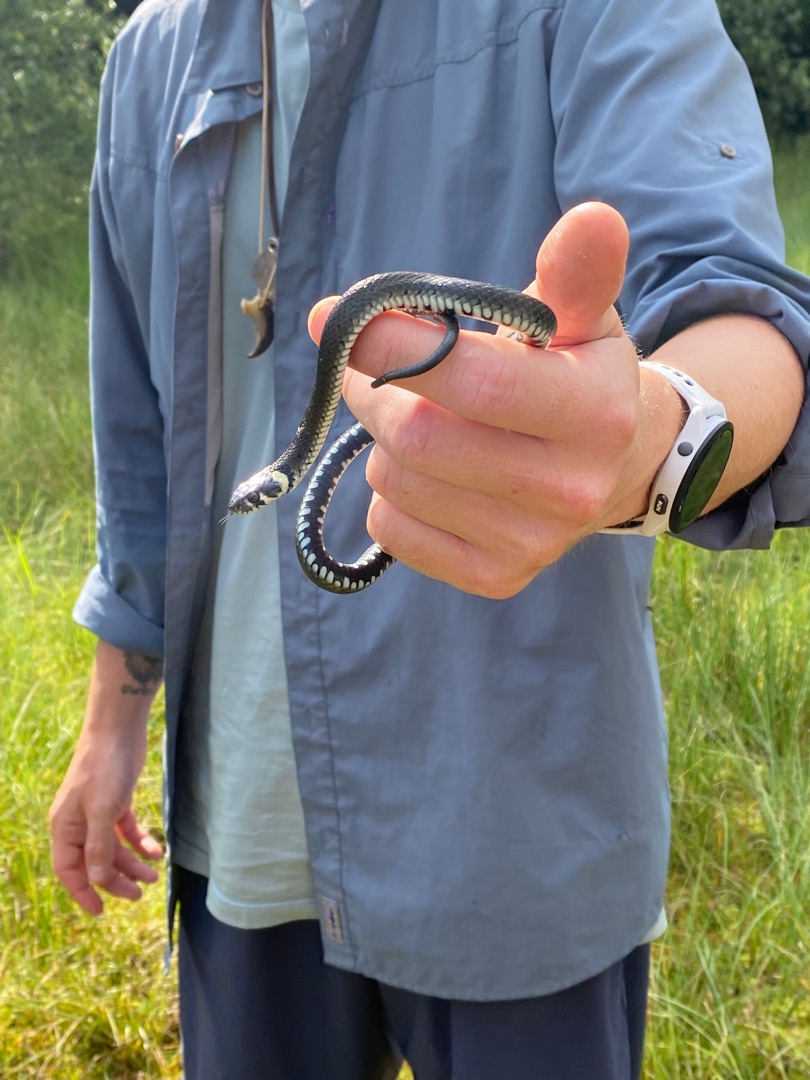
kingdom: Animalia
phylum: Chordata
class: Squamata
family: Colubridae
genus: Natrix
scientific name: Natrix natrix
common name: Snog
